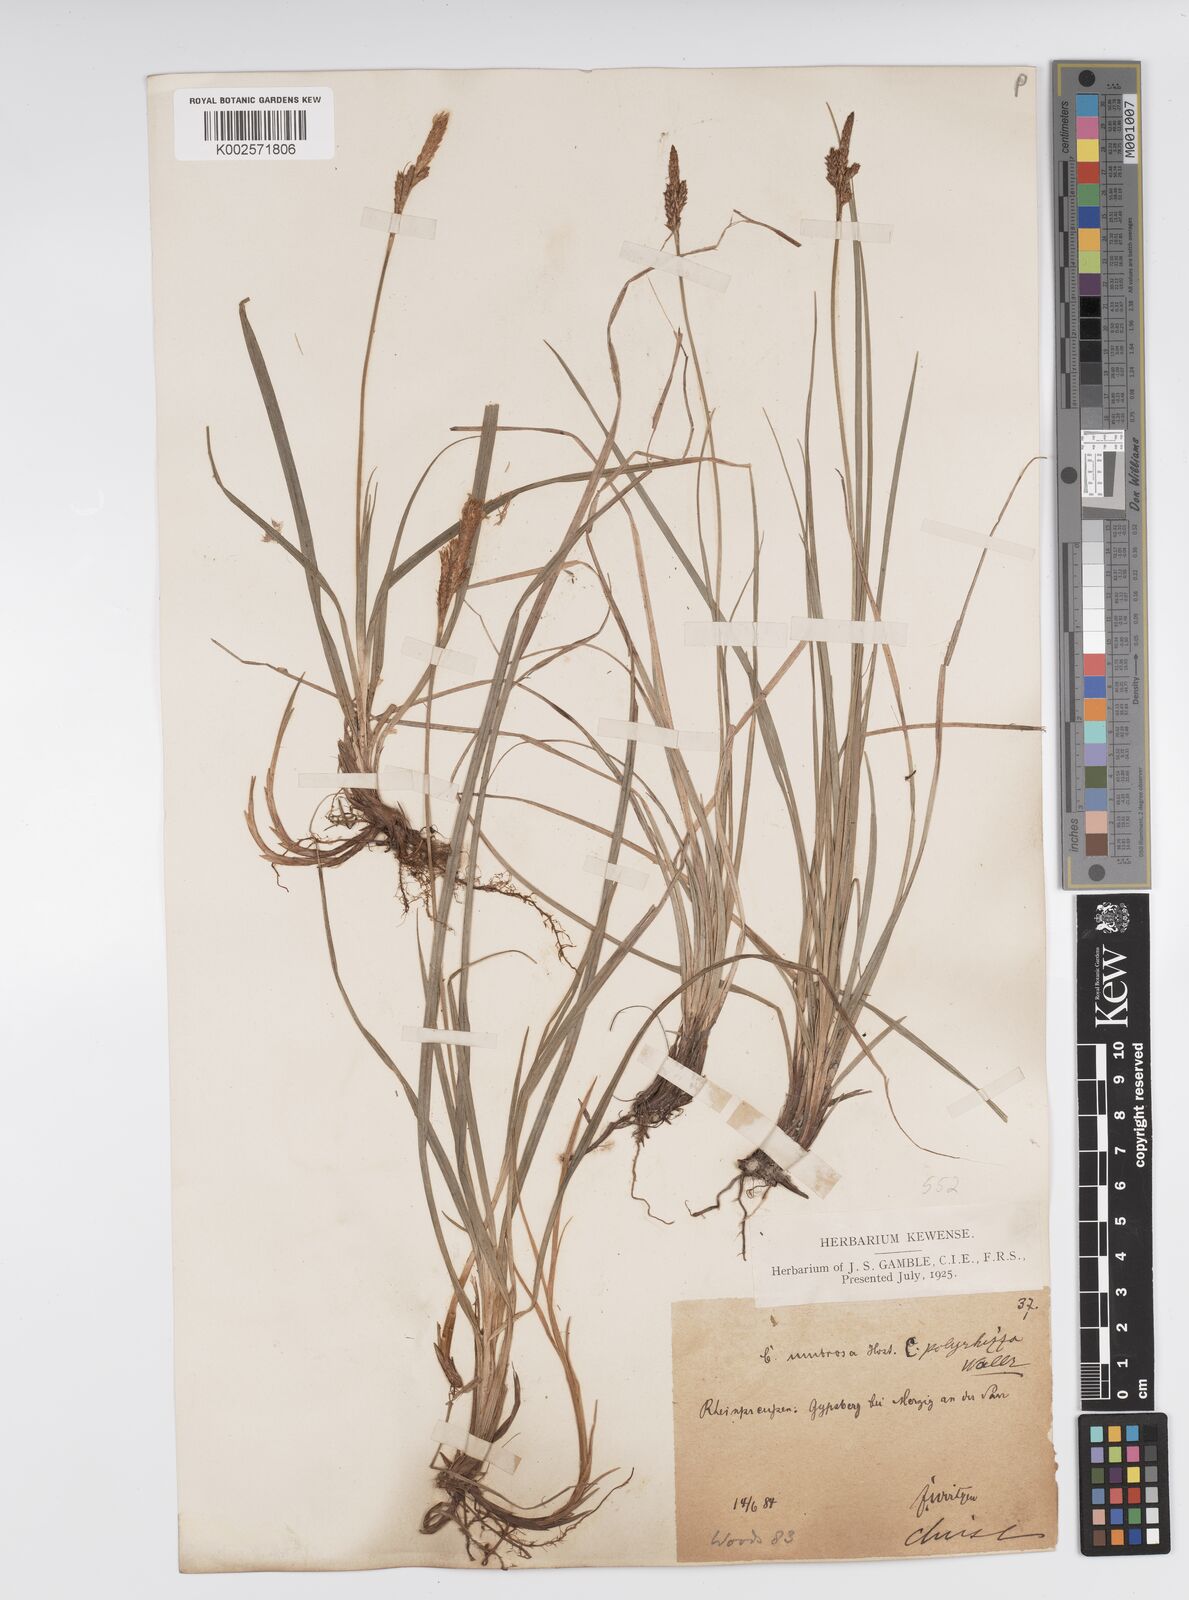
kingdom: Plantae
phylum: Tracheophyta
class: Liliopsida
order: Poales
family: Cyperaceae
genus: Carex
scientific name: Carex umbrosa
